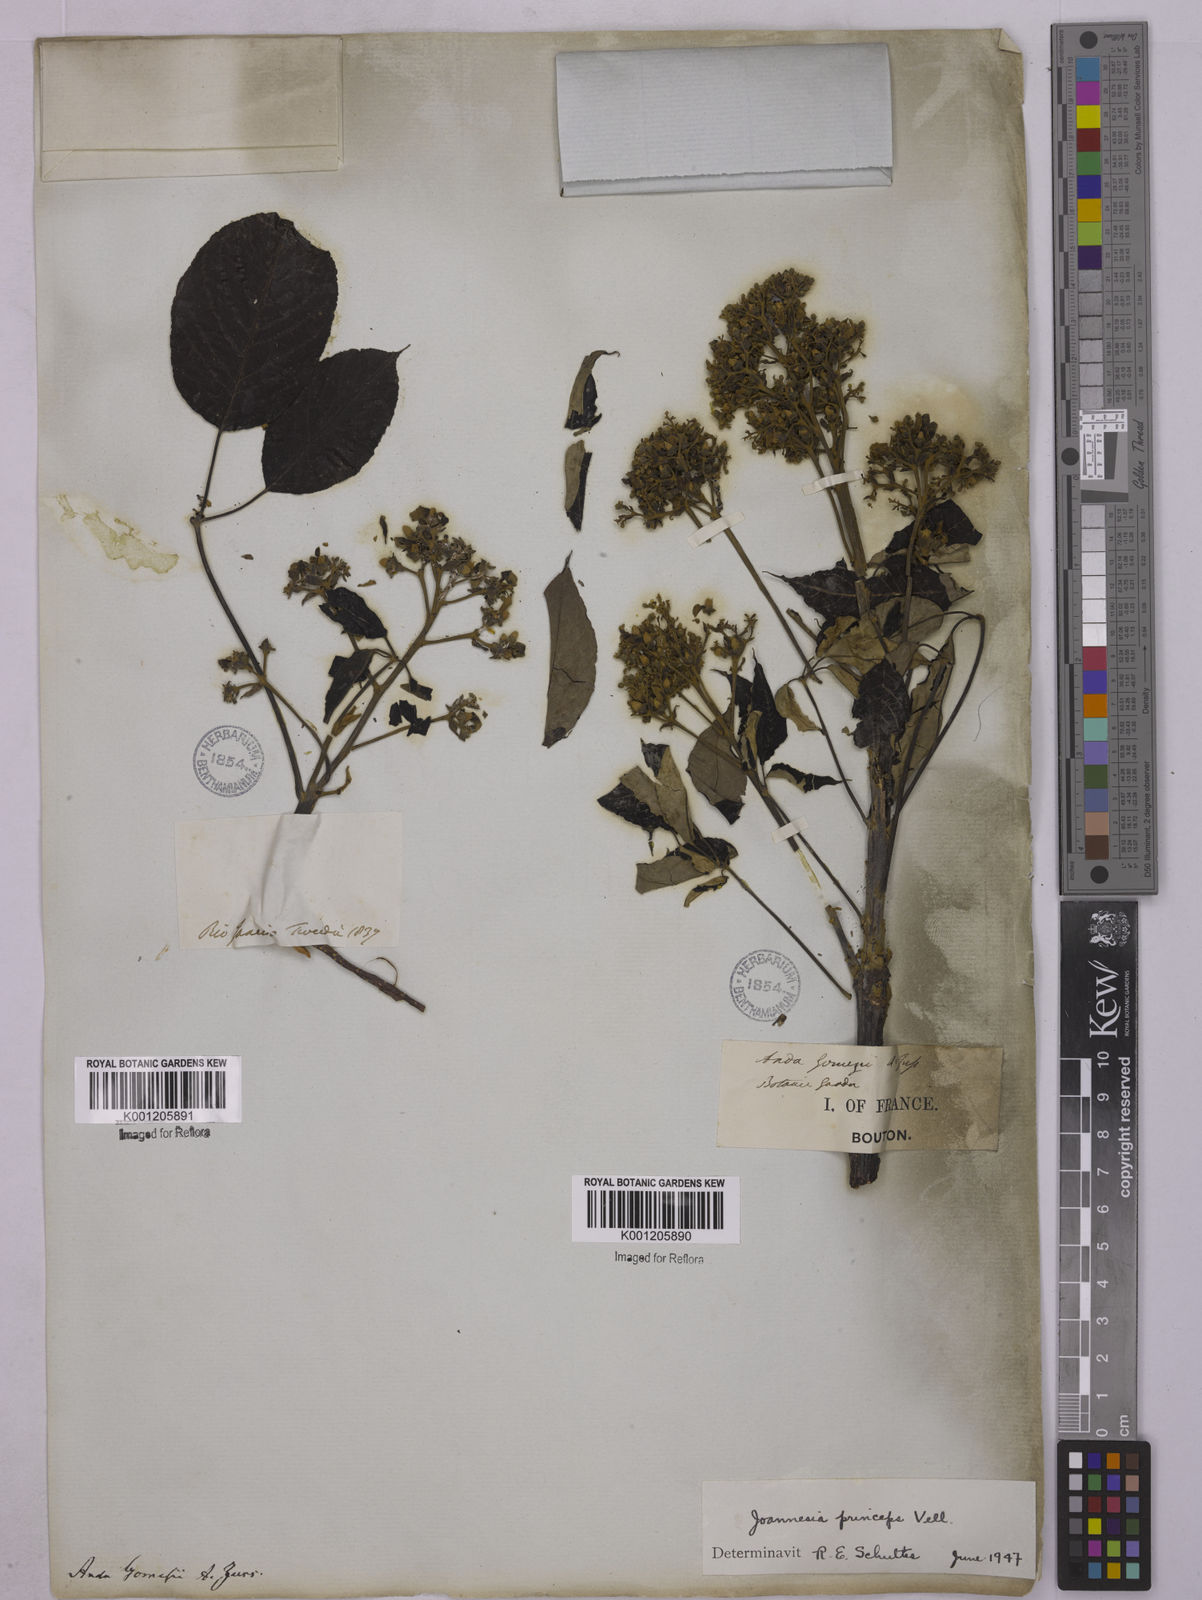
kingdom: Plantae
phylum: Tracheophyta
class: Magnoliopsida
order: Malpighiales
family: Euphorbiaceae
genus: Joannesia
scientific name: Joannesia princeps
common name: Arara nut-tree
